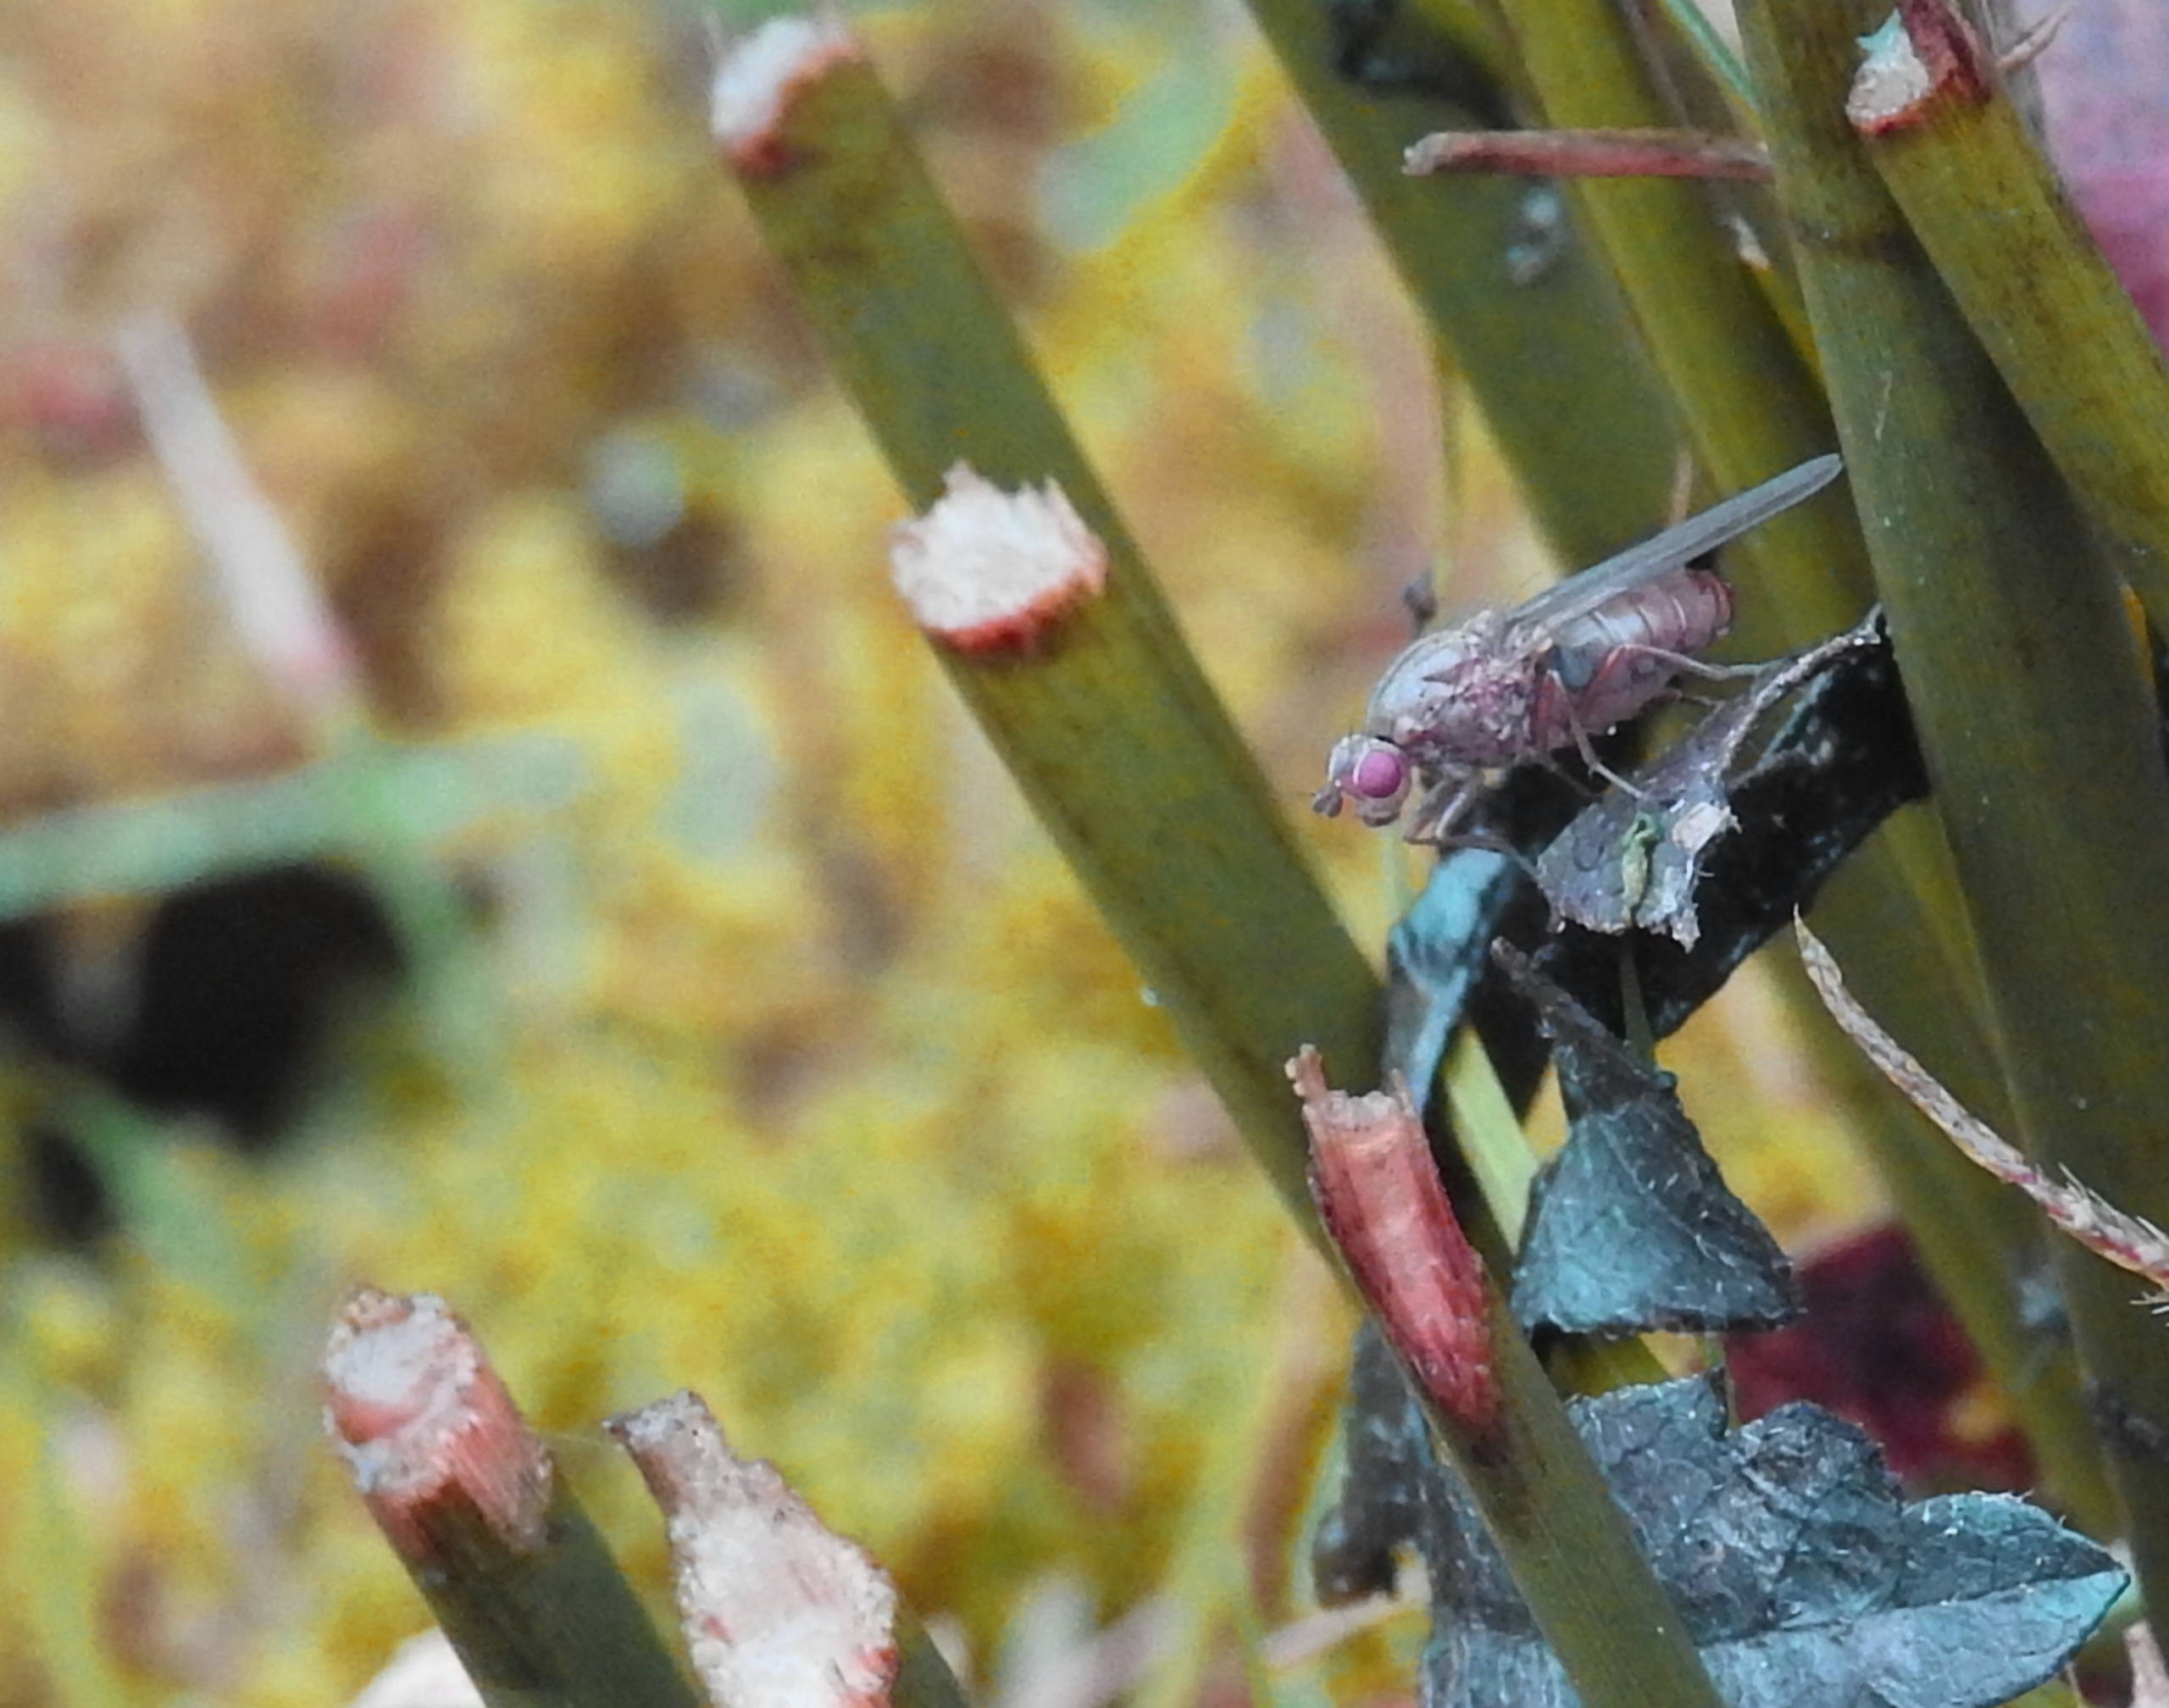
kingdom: Animalia
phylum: Arthropoda
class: Insecta
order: Diptera
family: Dryomyzidae
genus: Dryope
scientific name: Dryope flaveola
